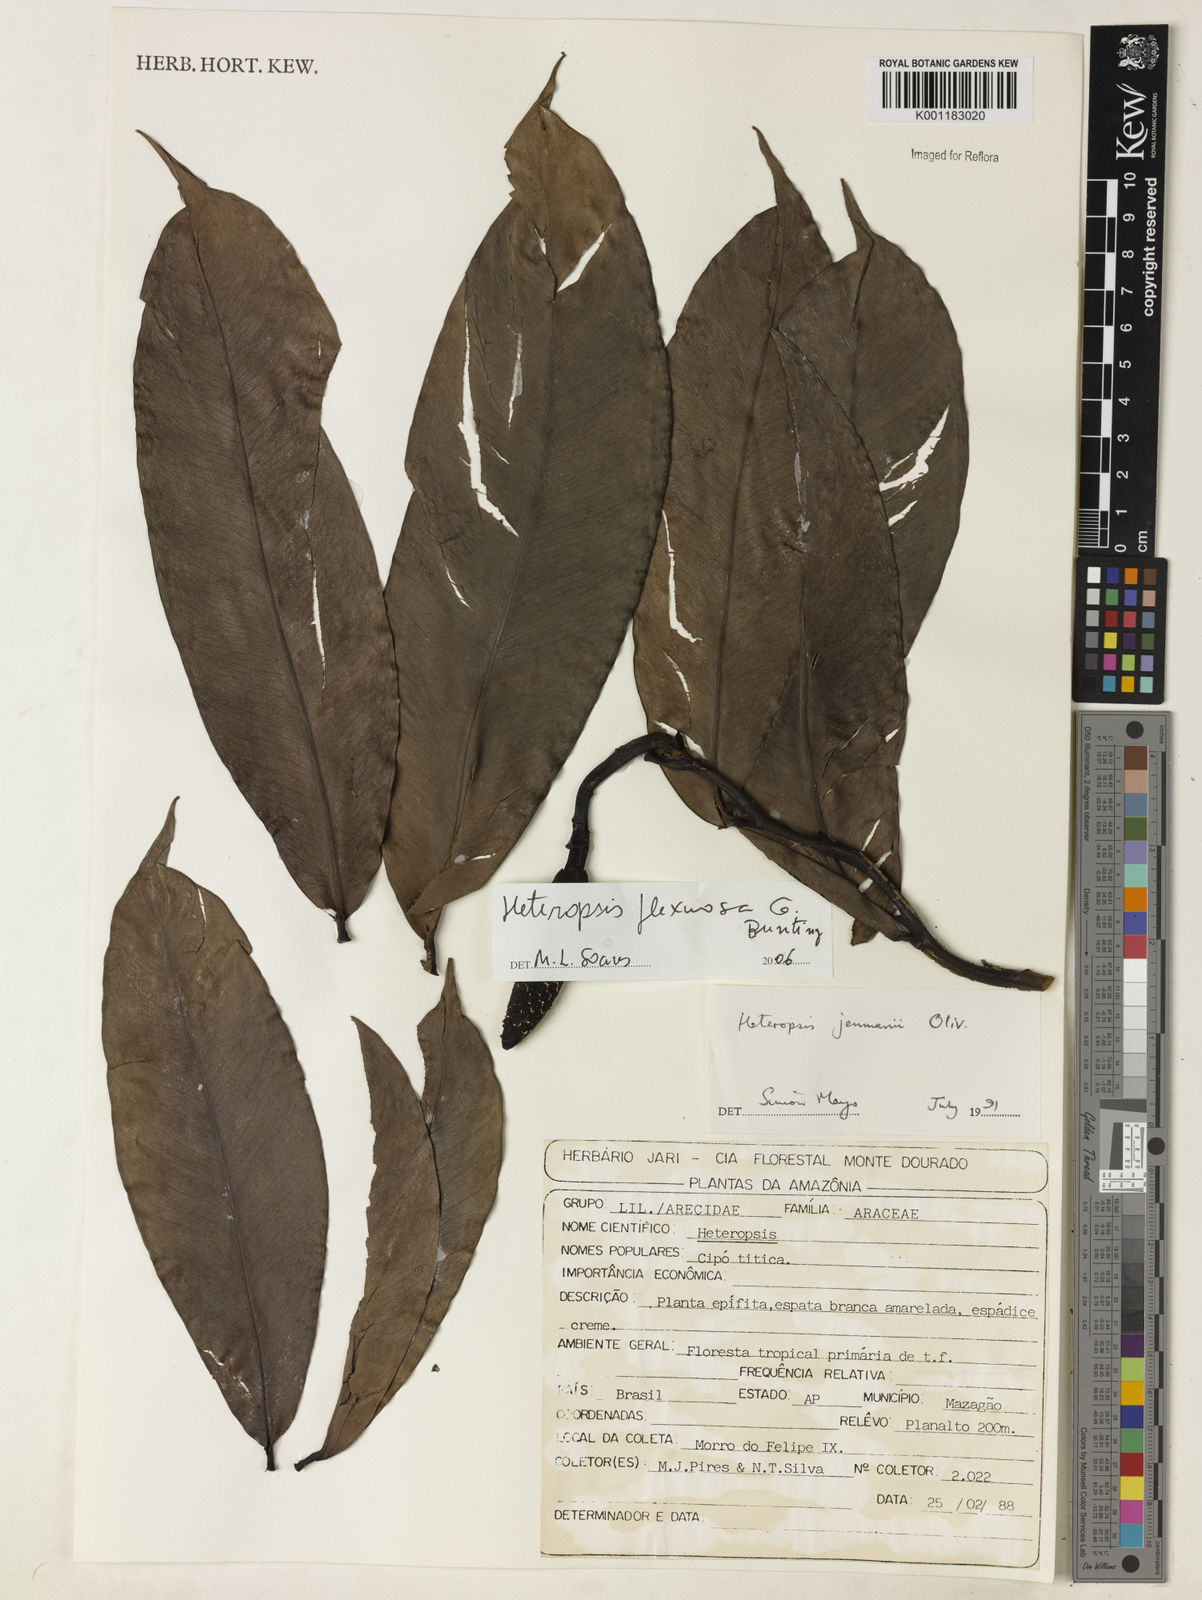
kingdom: Plantae
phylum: Tracheophyta
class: Liliopsida
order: Alismatales
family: Araceae
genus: Heteropsis
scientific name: Heteropsis flexuosa
